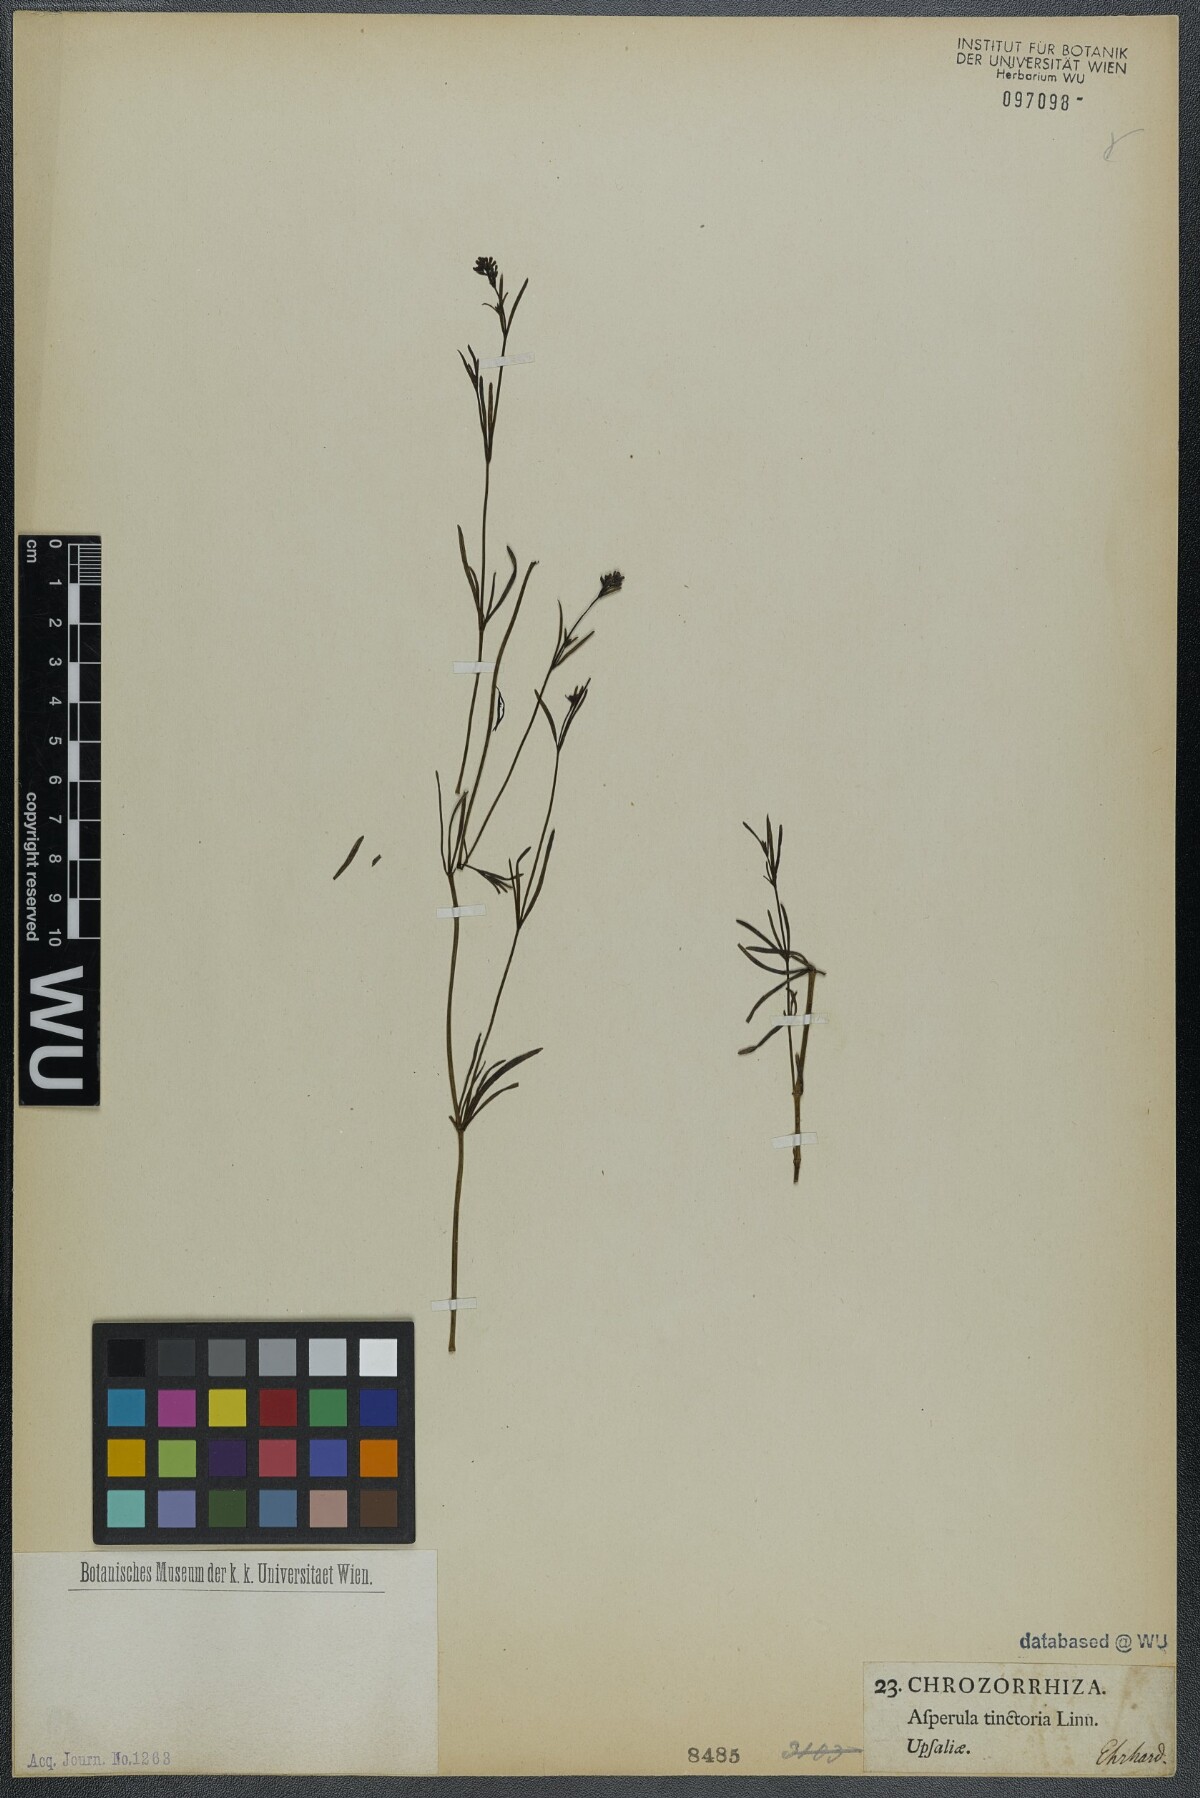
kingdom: Plantae
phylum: Tracheophyta
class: Magnoliopsida
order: Gentianales
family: Rubiaceae
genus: Asperula
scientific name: Asperula tinctoria
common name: Dyer's woodruff
